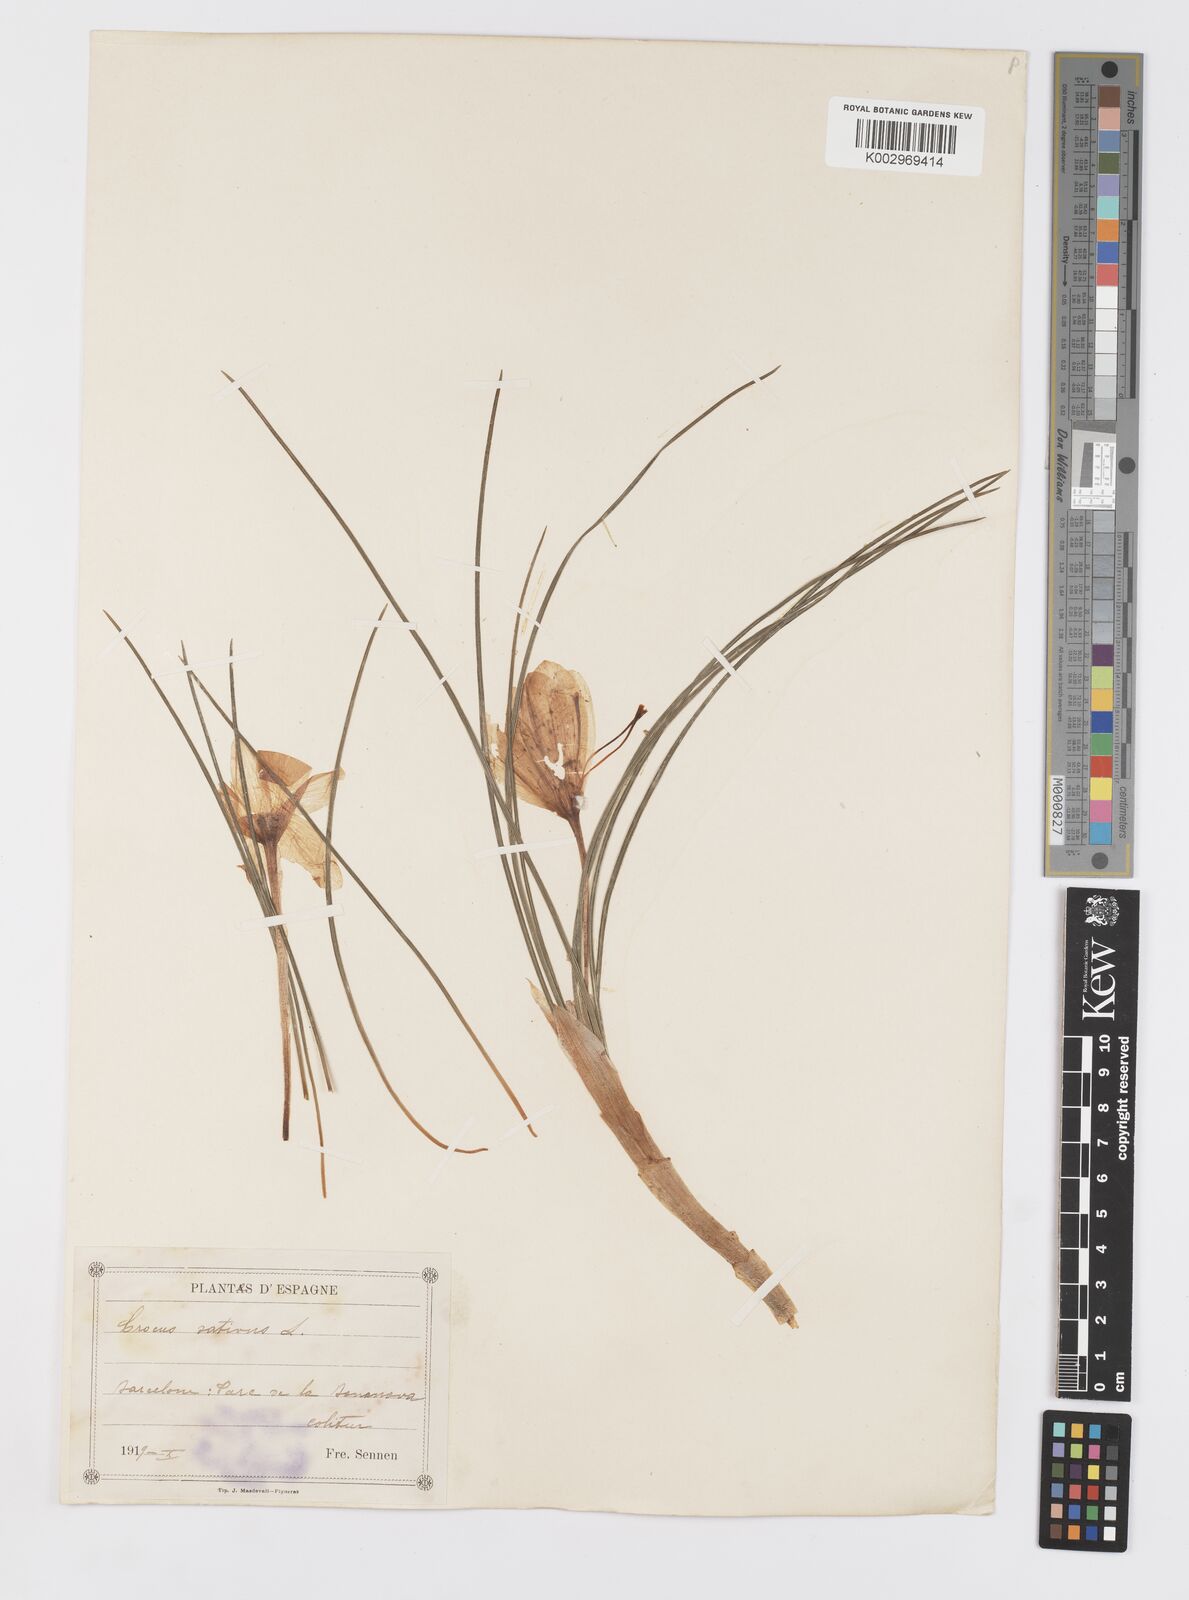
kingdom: Plantae
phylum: Tracheophyta
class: Liliopsida
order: Asparagales
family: Iridaceae
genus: Crocus
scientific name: Crocus sativus
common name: Saffron crocus
